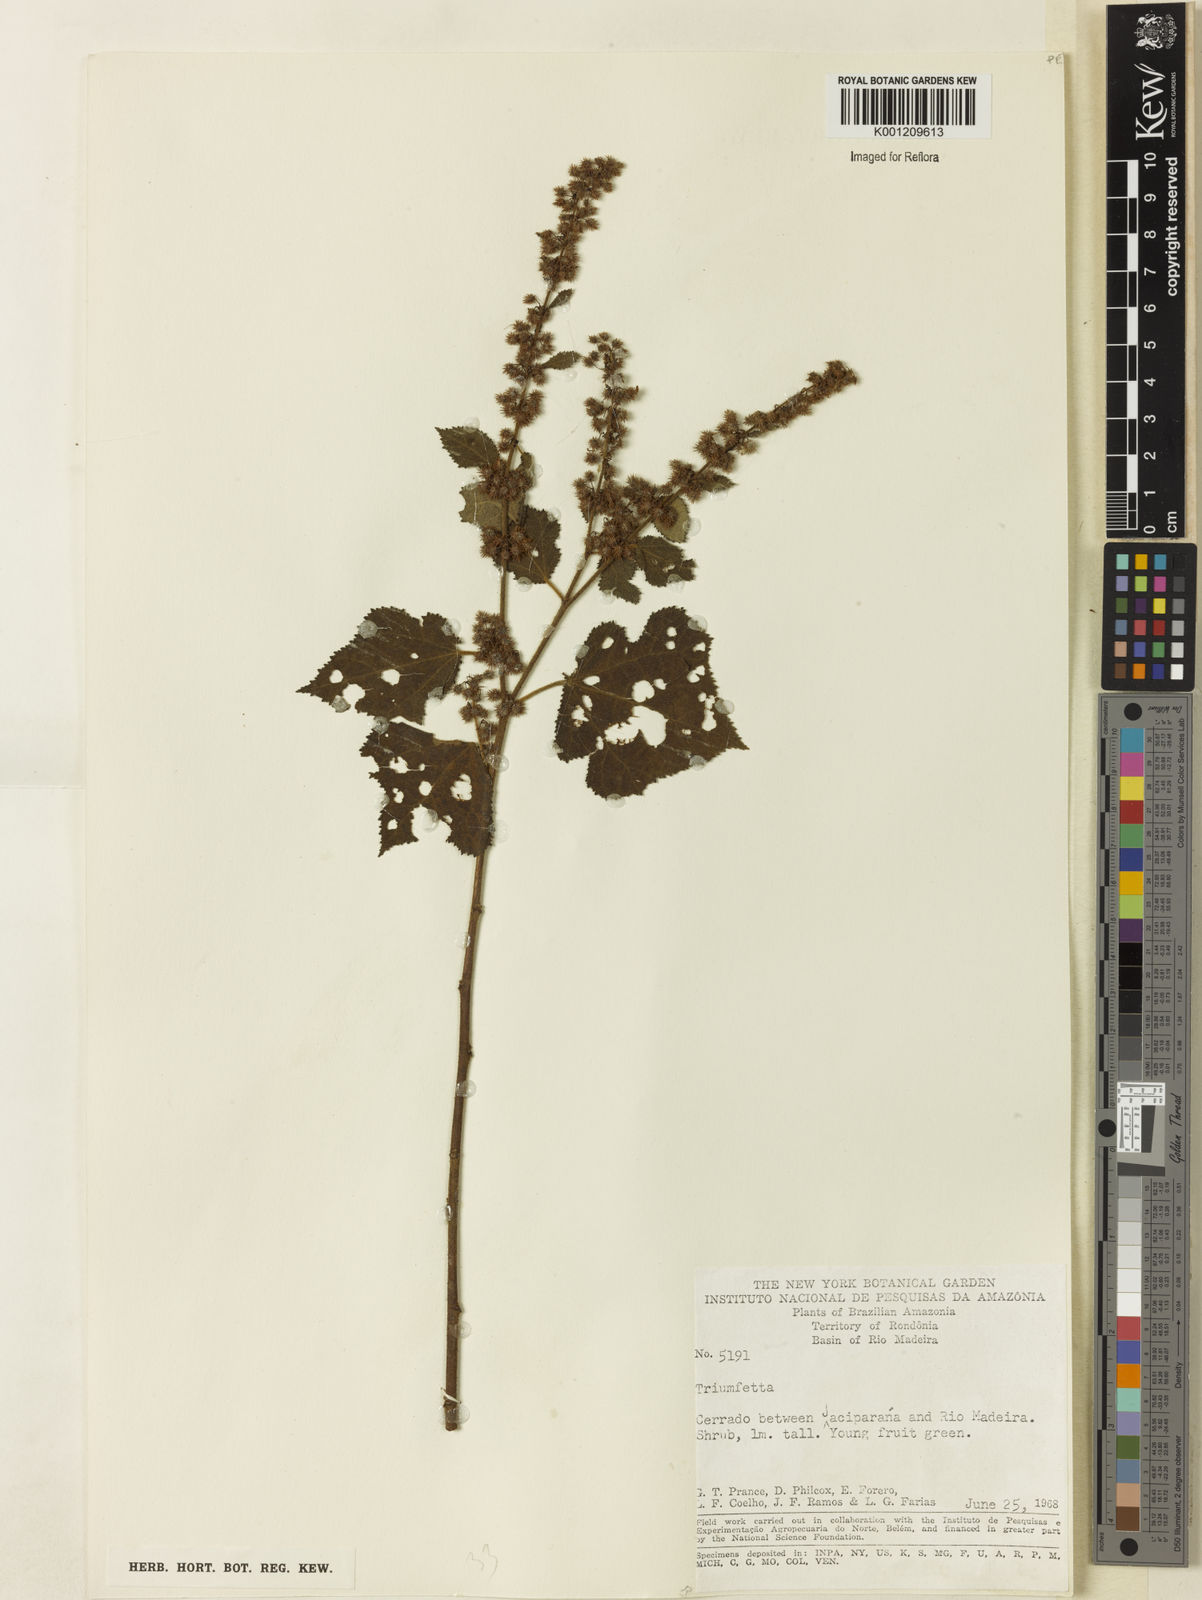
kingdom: Plantae
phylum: Tracheophyta
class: Magnoliopsida
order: Malvales
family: Malvaceae
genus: Triumfetta
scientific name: Triumfetta
